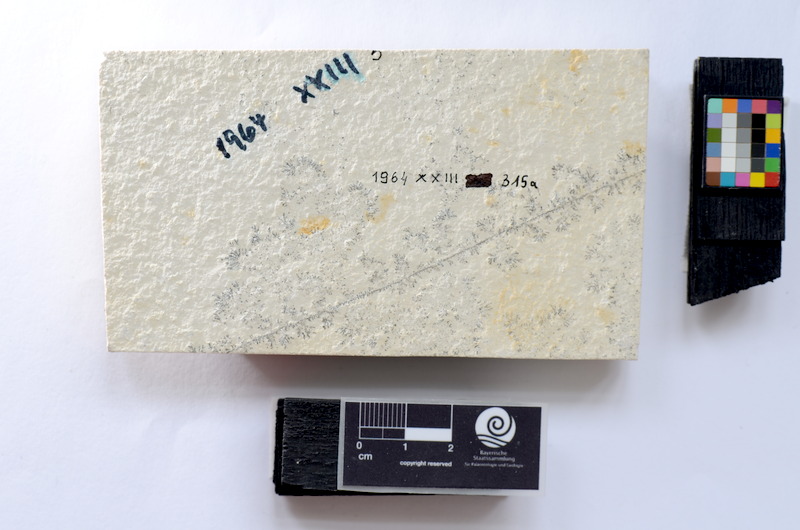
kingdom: Animalia
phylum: Chordata
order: Salmoniformes
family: Orthogonikleithridae
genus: Leptolepides
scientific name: Leptolepides
